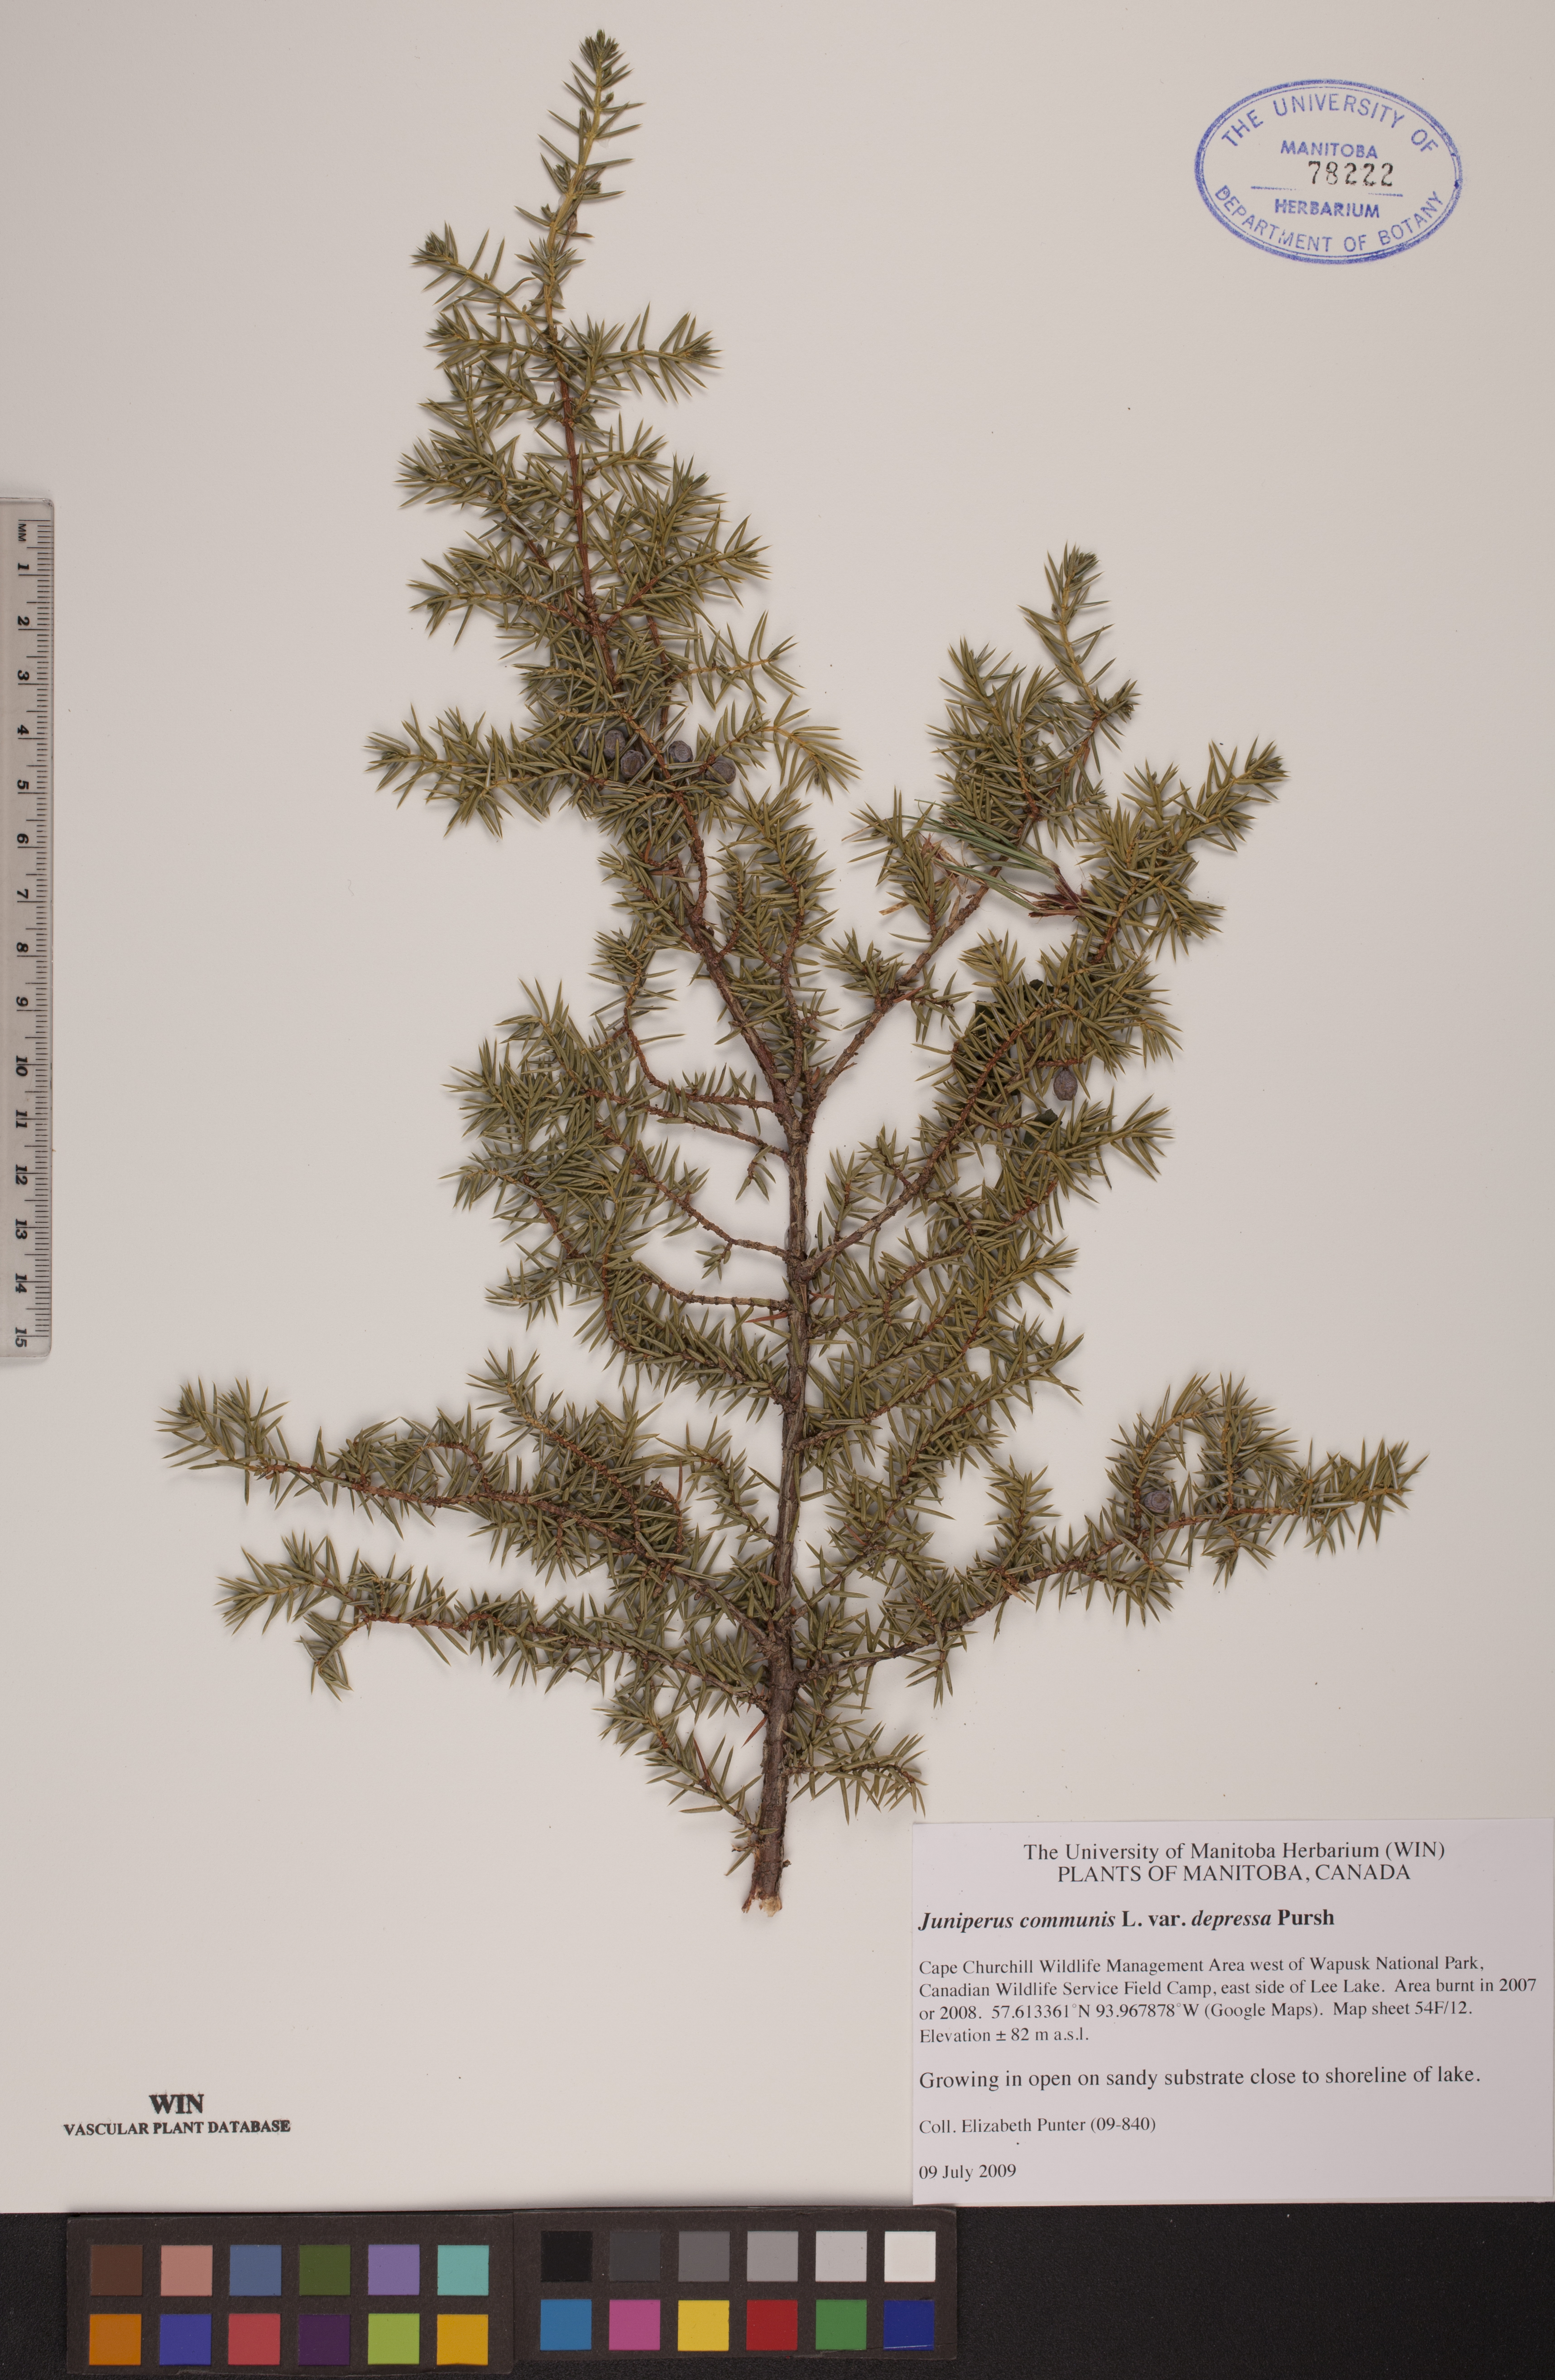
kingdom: Plantae
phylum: Tracheophyta
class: Pinopsida
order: Pinales
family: Cupressaceae
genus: Juniperus
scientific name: Juniperus communis
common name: Common juniper
